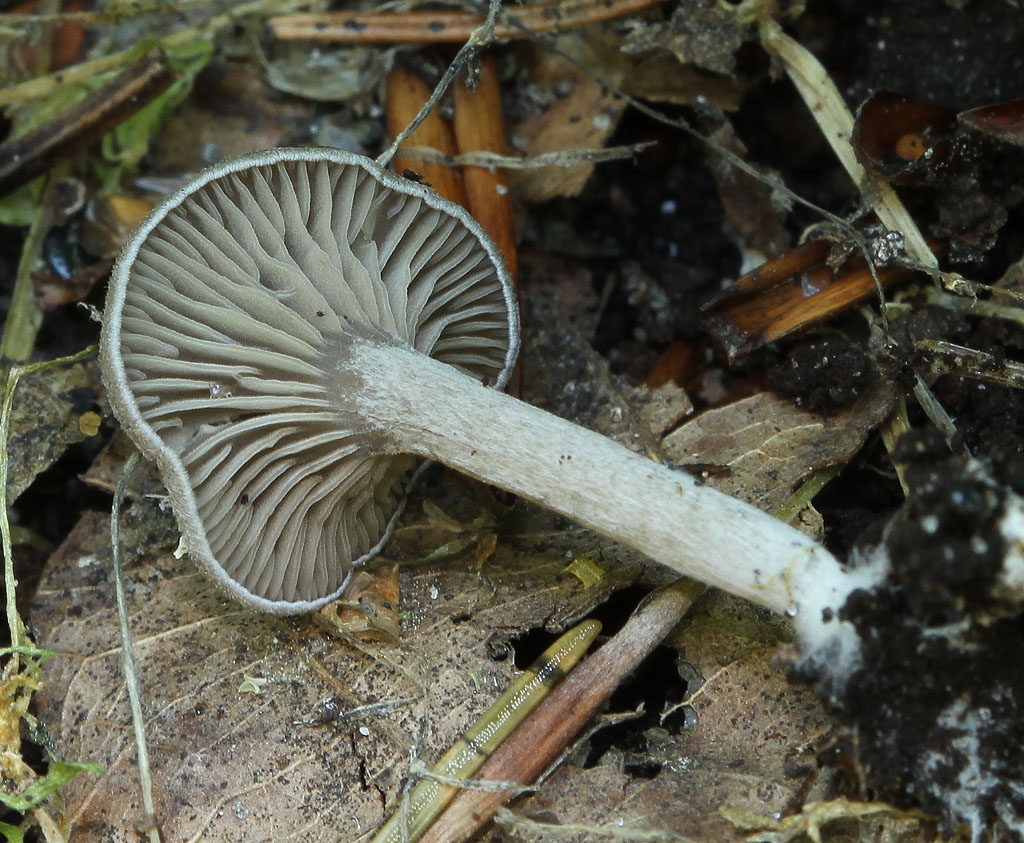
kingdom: Fungi
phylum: Basidiomycota
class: Agaricomycetes
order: Agaricales
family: Entolomataceae
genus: Entoloma
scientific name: Entoloma undatum
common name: bæltet rødblad
